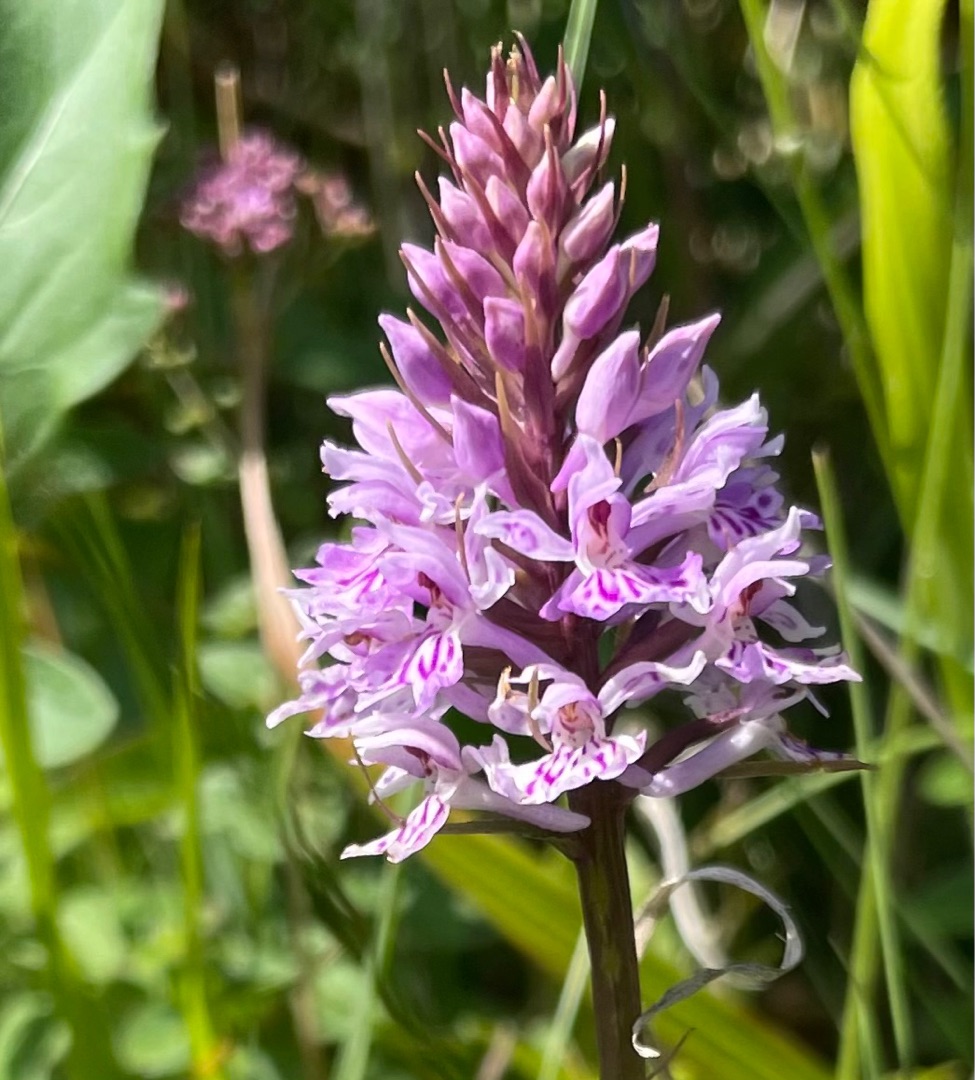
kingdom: Plantae
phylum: Tracheophyta
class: Liliopsida
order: Asparagales
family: Orchidaceae
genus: Dactylorhiza
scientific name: Dactylorhiza maculata
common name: Skov-gøgeurt
